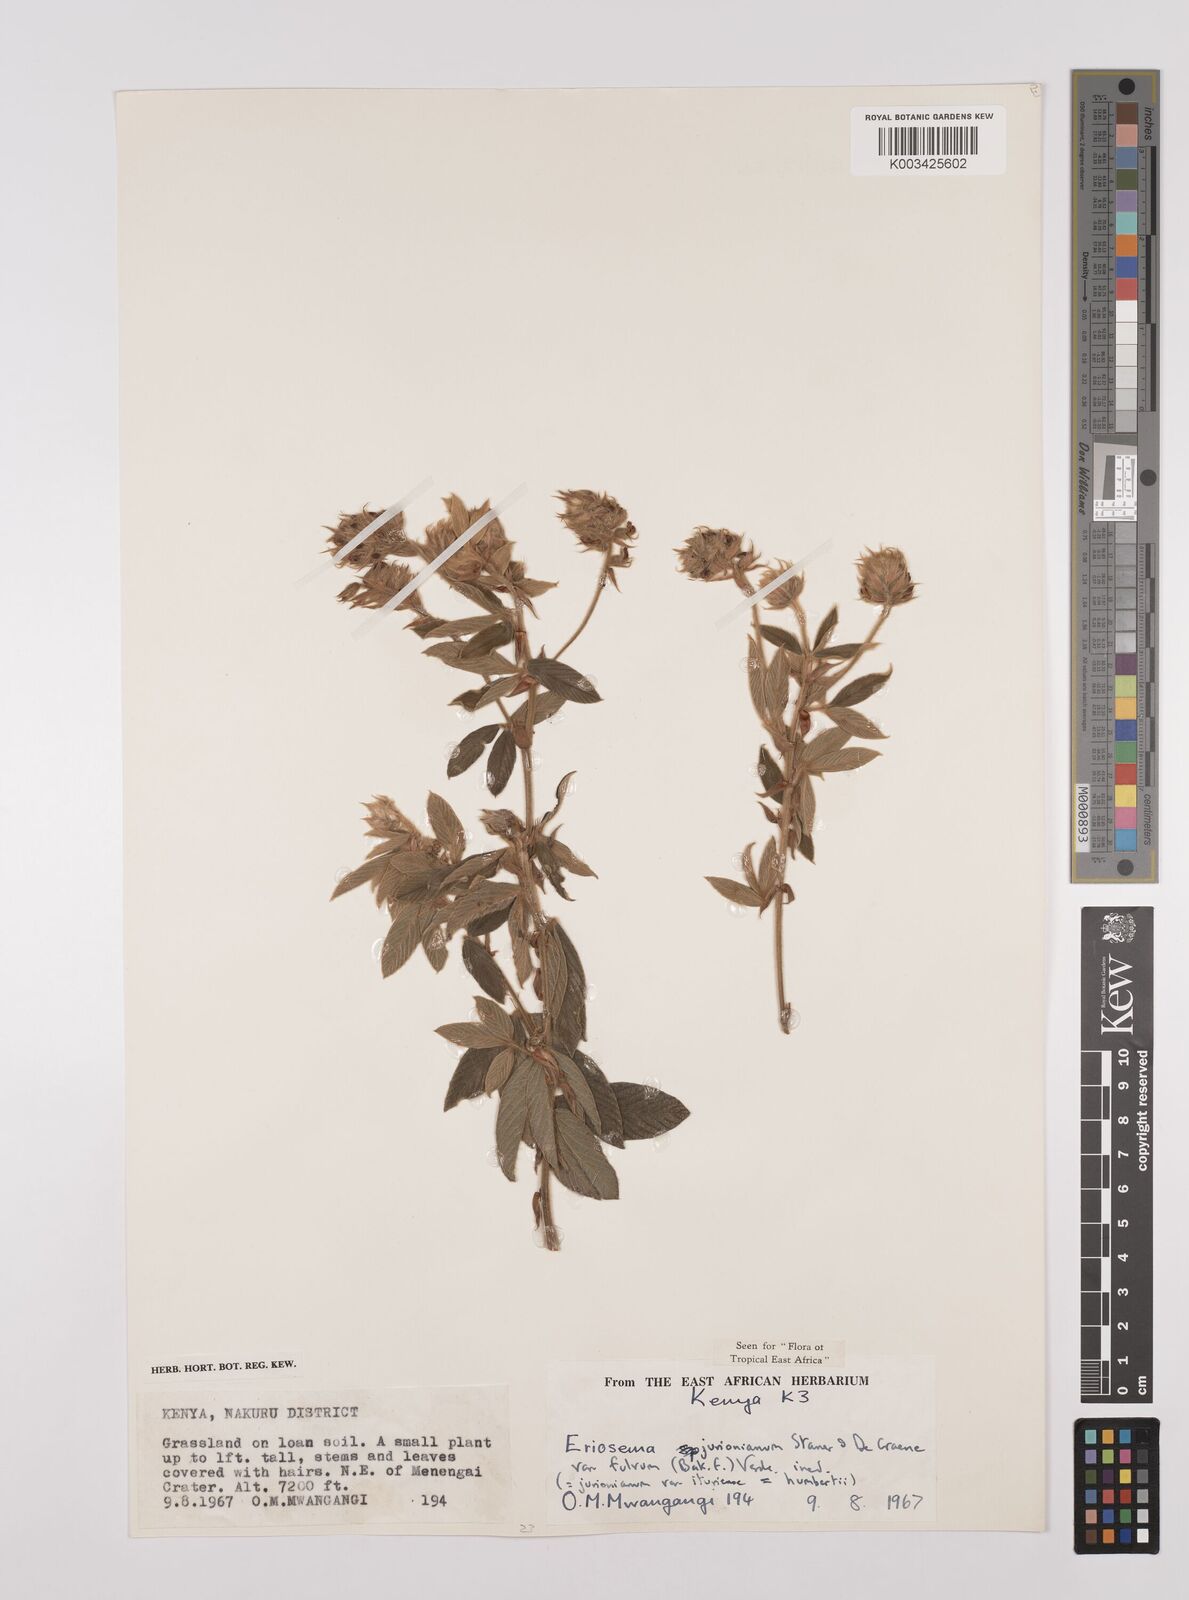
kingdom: Plantae
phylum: Tracheophyta
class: Magnoliopsida
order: Fabales
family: Fabaceae
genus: Eriosema
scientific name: Eriosema jurionianum
